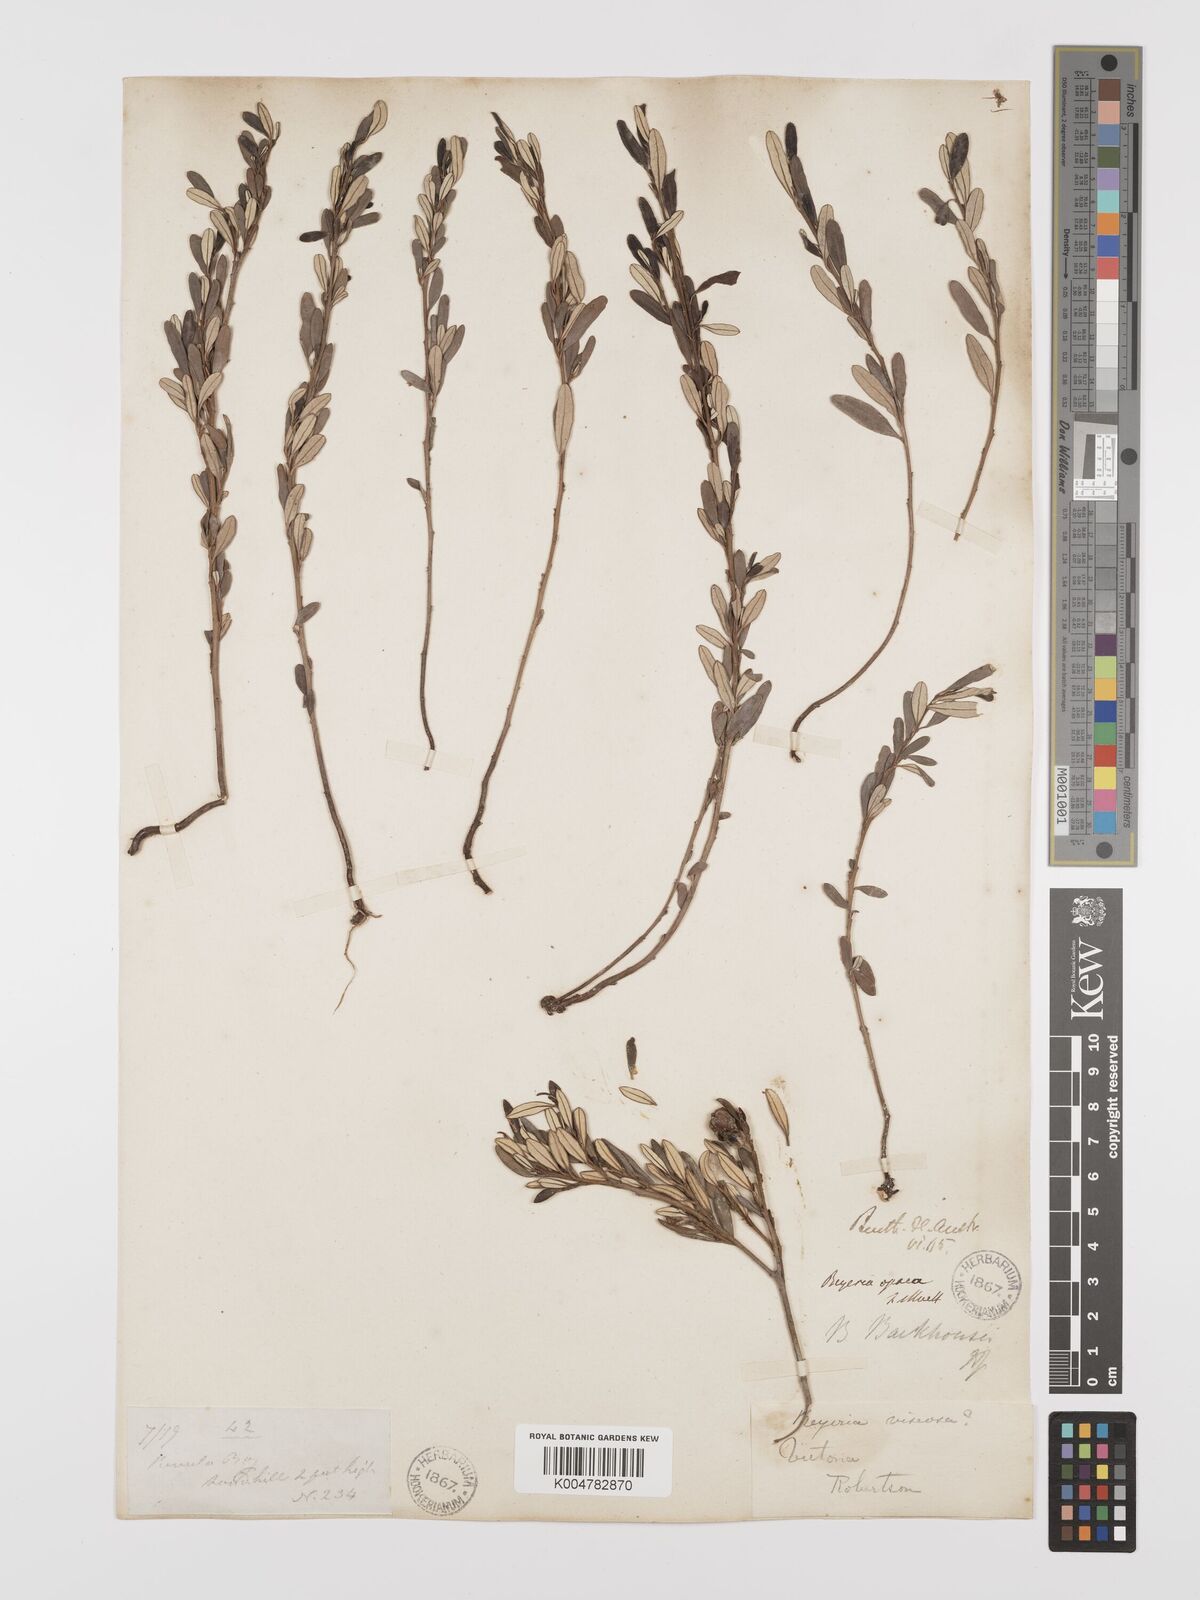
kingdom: Plantae
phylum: Tracheophyta
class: Magnoliopsida
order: Malpighiales
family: Euphorbiaceae
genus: Beyeria
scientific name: Beyeria lechenaultii
